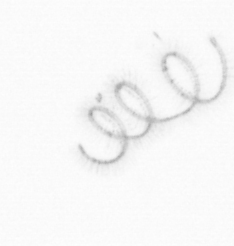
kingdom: Chromista
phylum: Ochrophyta
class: Bacillariophyceae
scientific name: Bacillariophyceae
